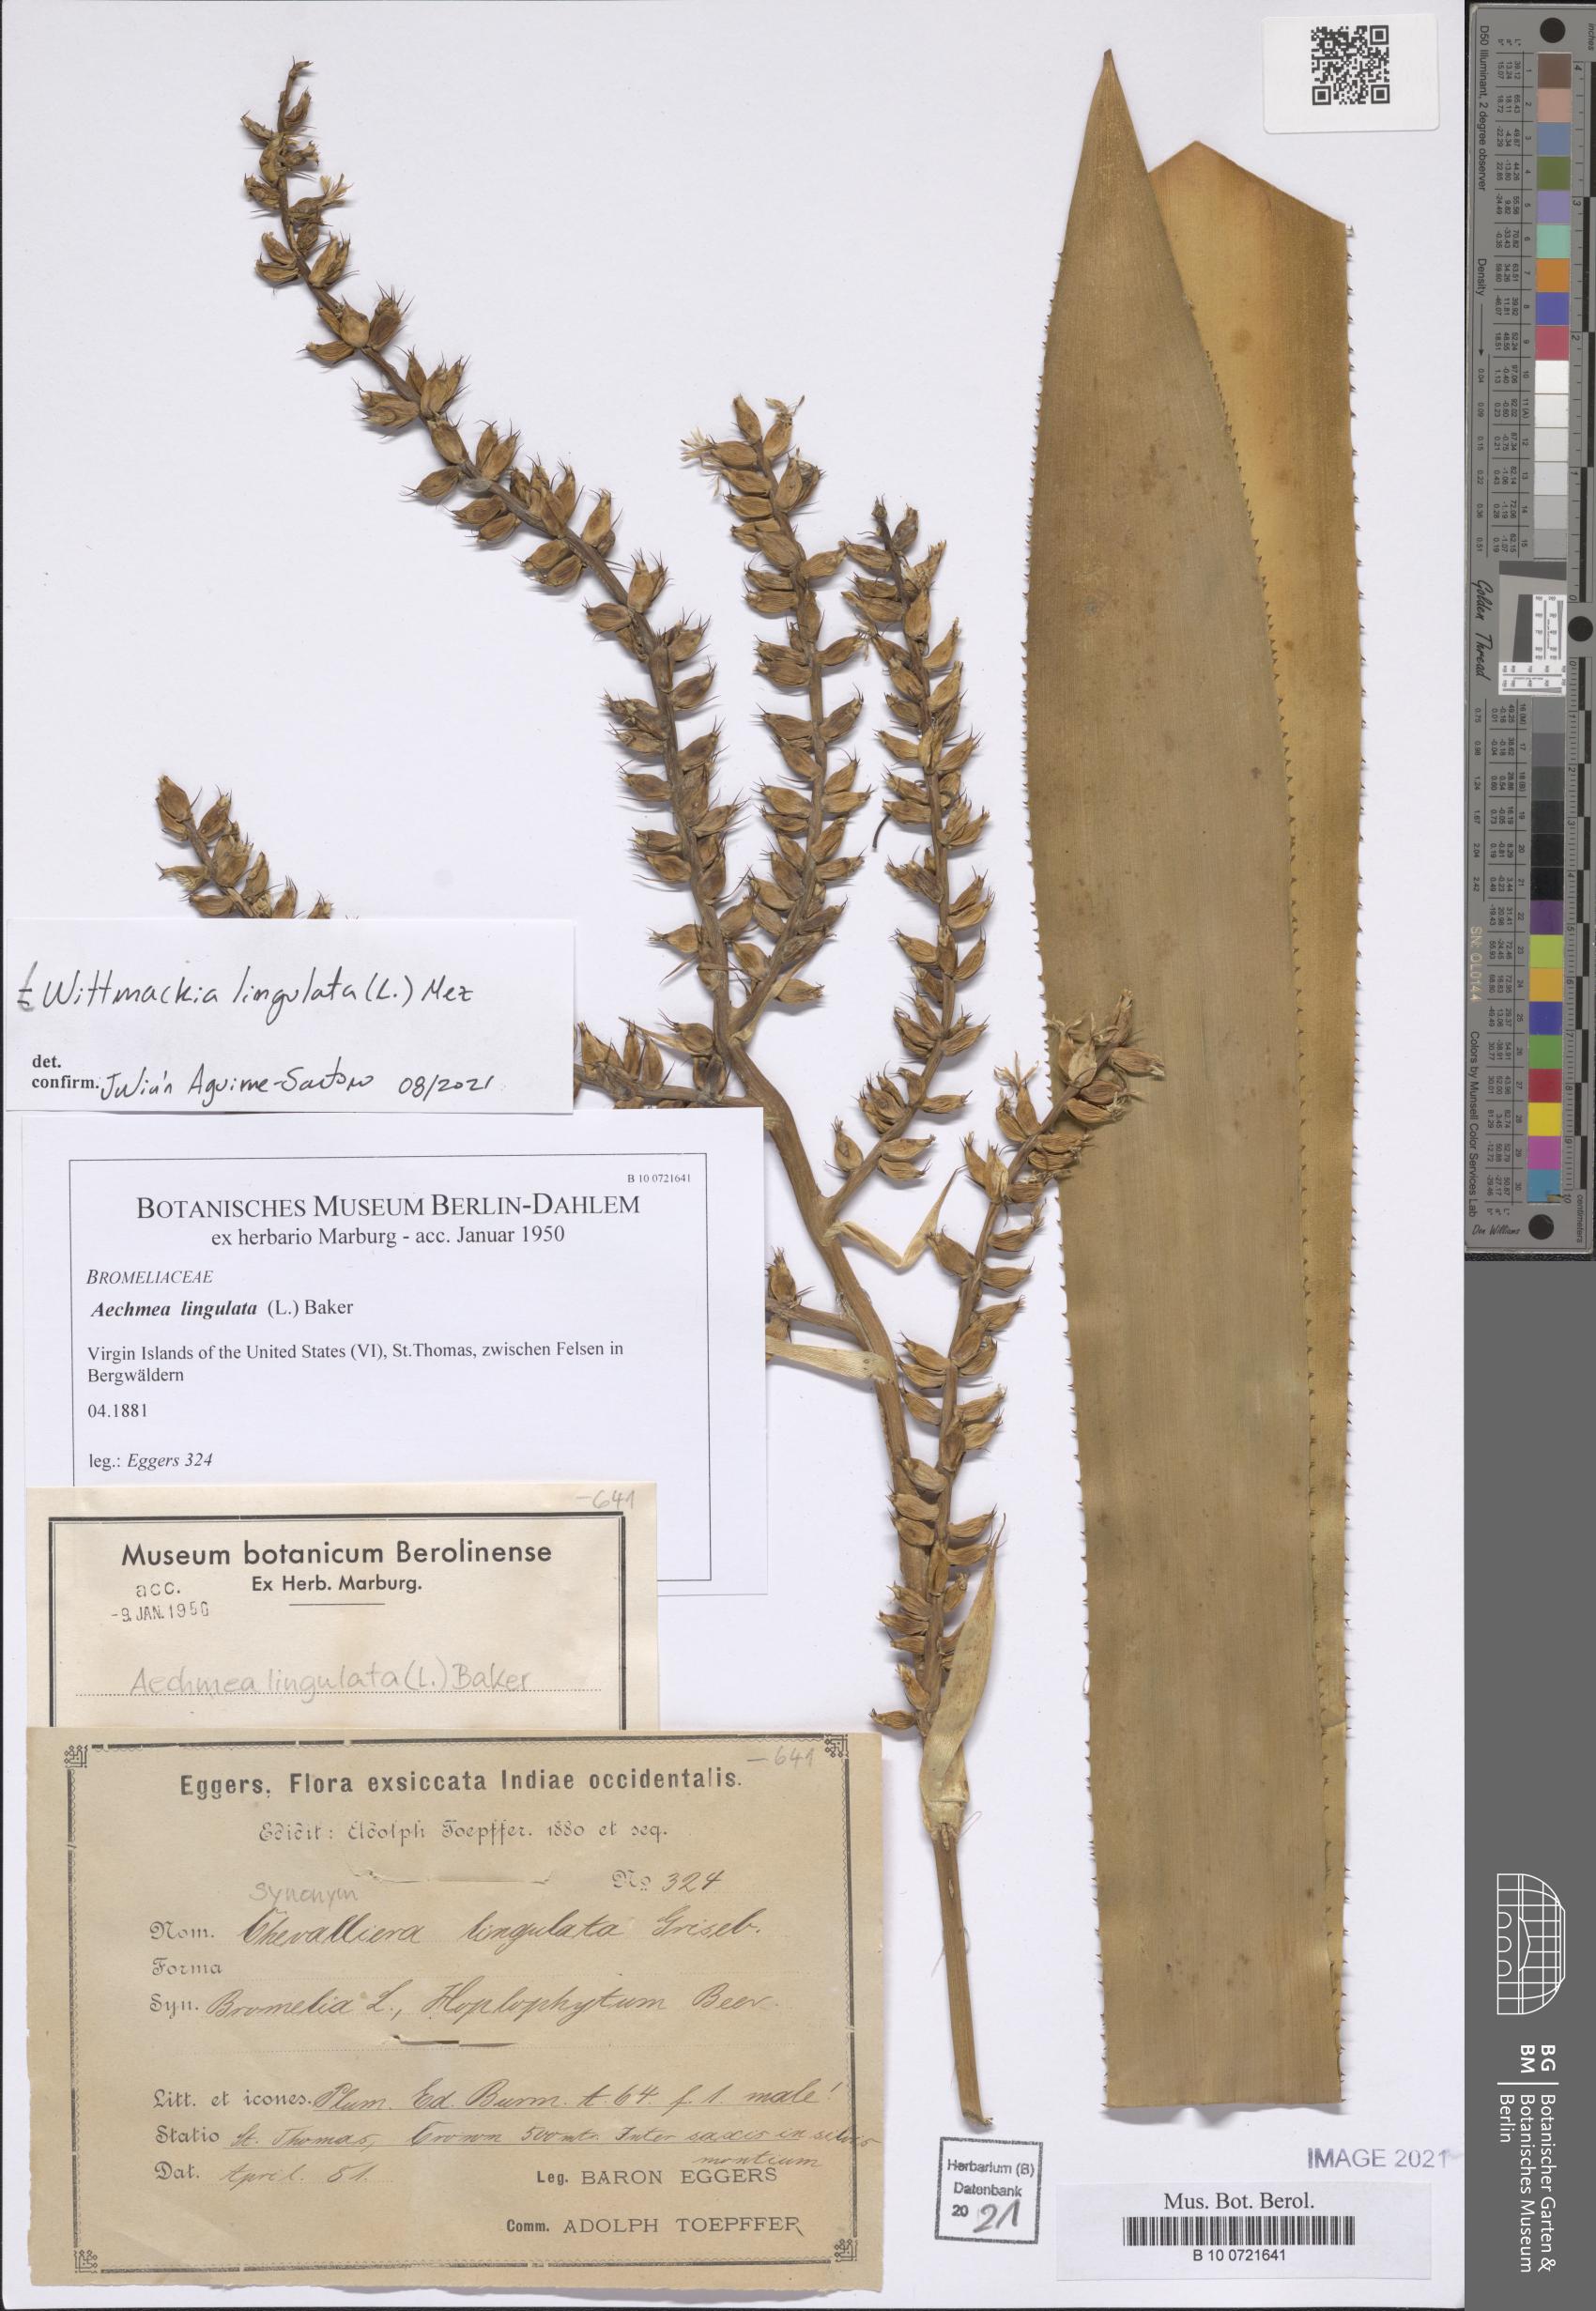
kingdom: Plantae
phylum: Tracheophyta
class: Liliopsida
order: Poales
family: Bromeliaceae
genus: Wittmackia
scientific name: Wittmackia lingulata
